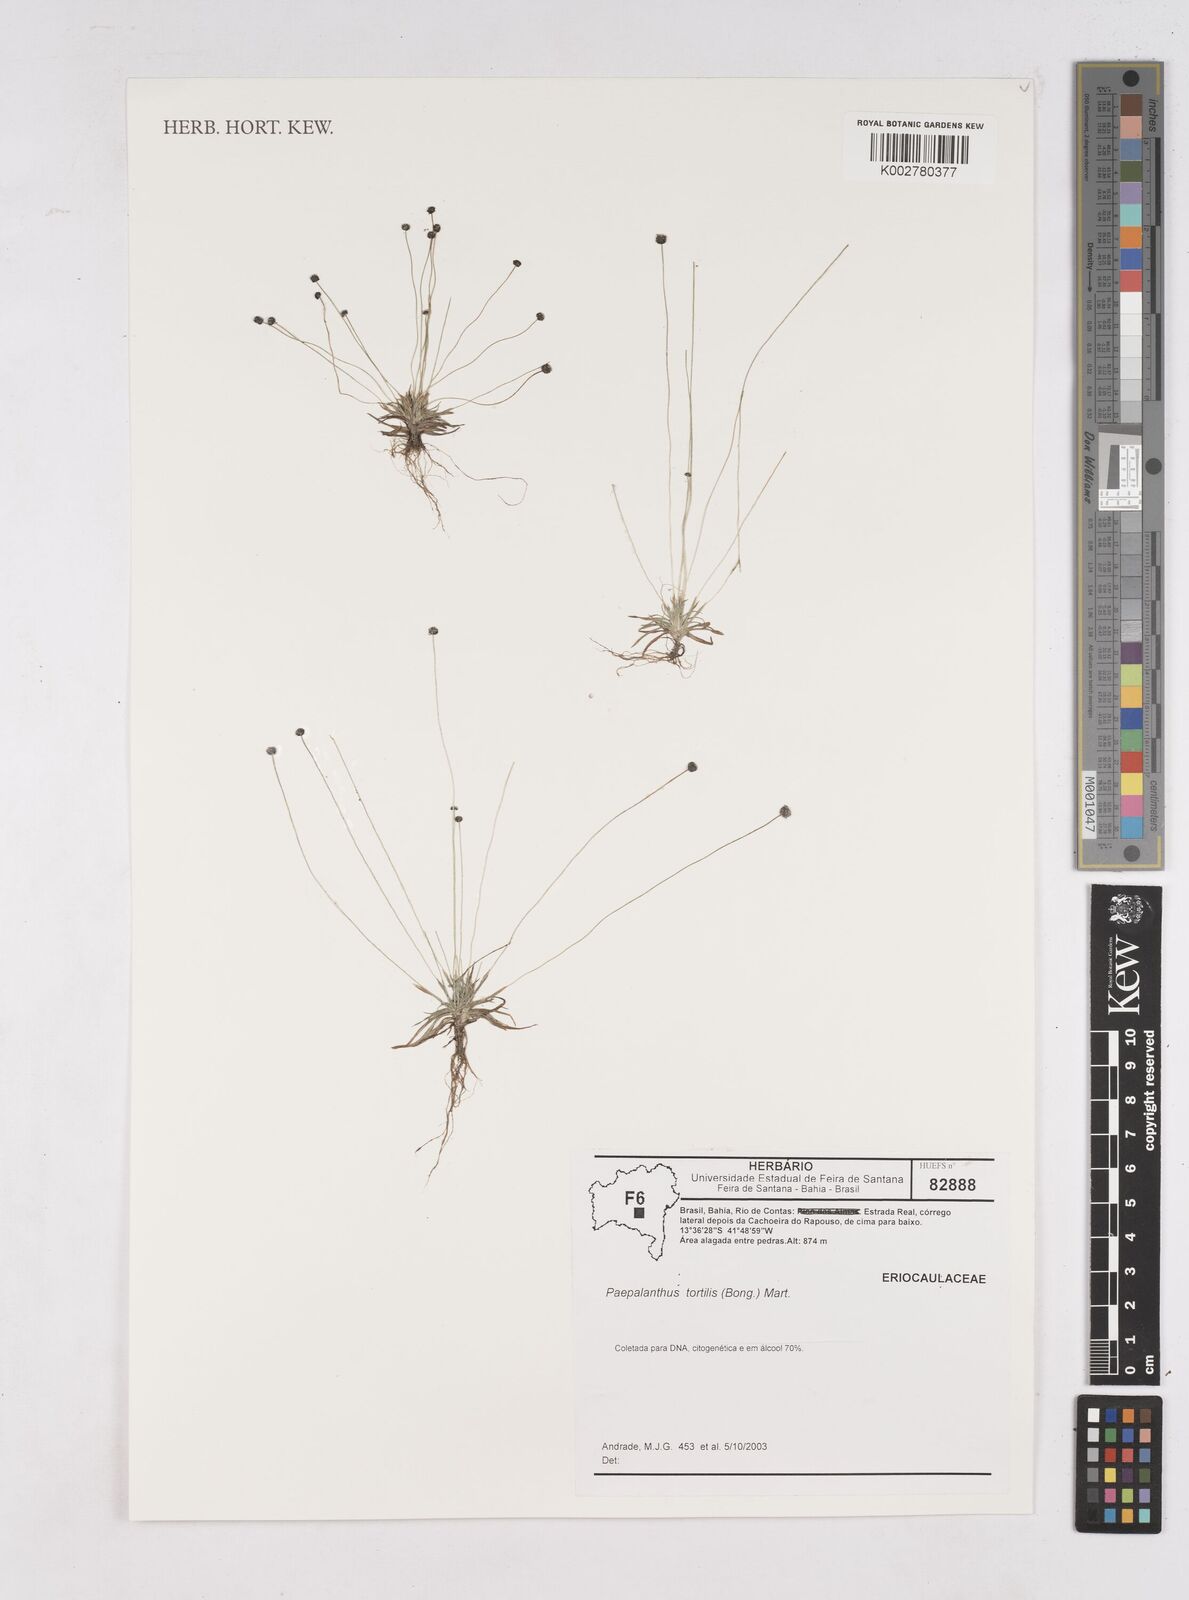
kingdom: Plantae
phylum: Tracheophyta
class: Liliopsida
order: Poales
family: Eriocaulaceae
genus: Paepalanthus
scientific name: Paepalanthus tortilis
